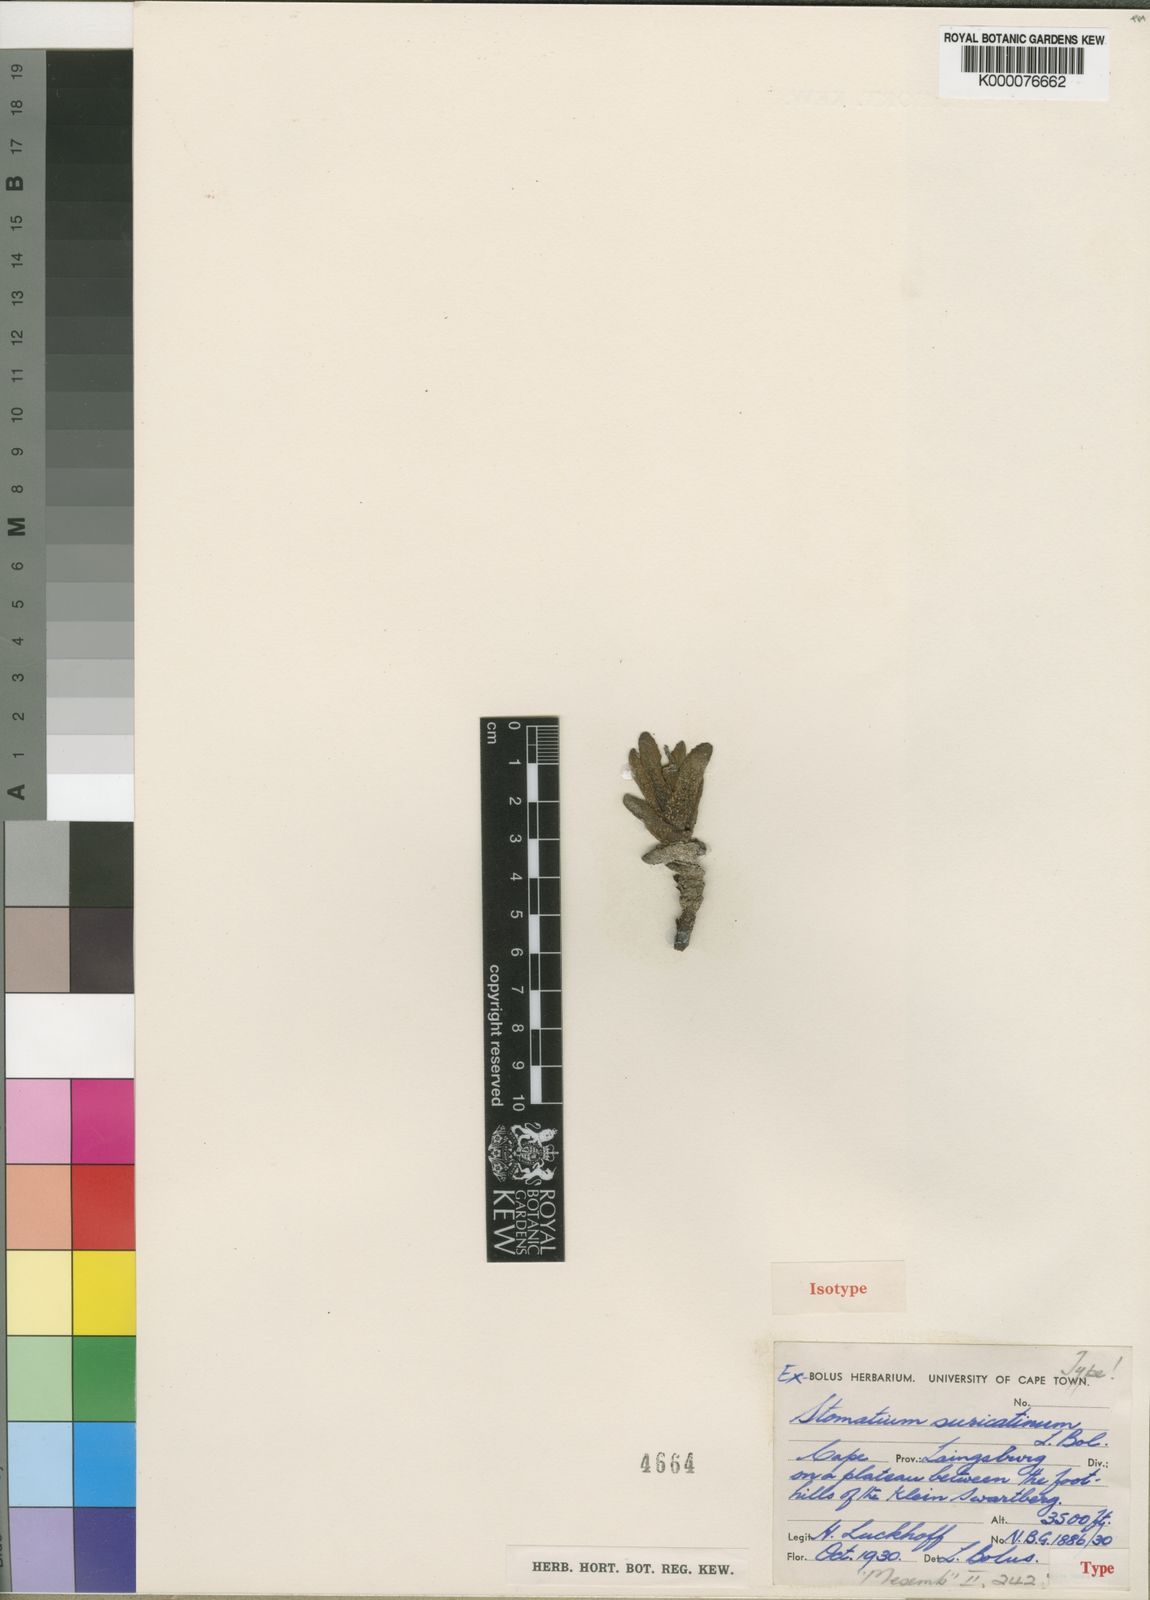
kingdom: Plantae
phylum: Tracheophyta
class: Magnoliopsida
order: Caryophyllales
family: Aizoaceae
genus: Stomatium
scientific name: Stomatium suricatinum
